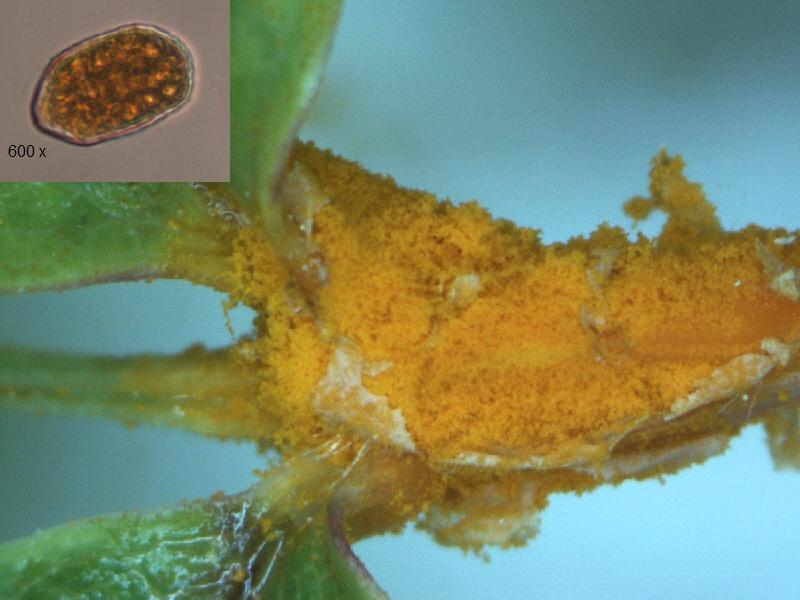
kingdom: Fungi
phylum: Basidiomycota
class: Pucciniomycetes
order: Pucciniales
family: Phragmidiaceae
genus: Phragmidium
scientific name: Phragmidium mucronatum
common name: rose-flercellerust
